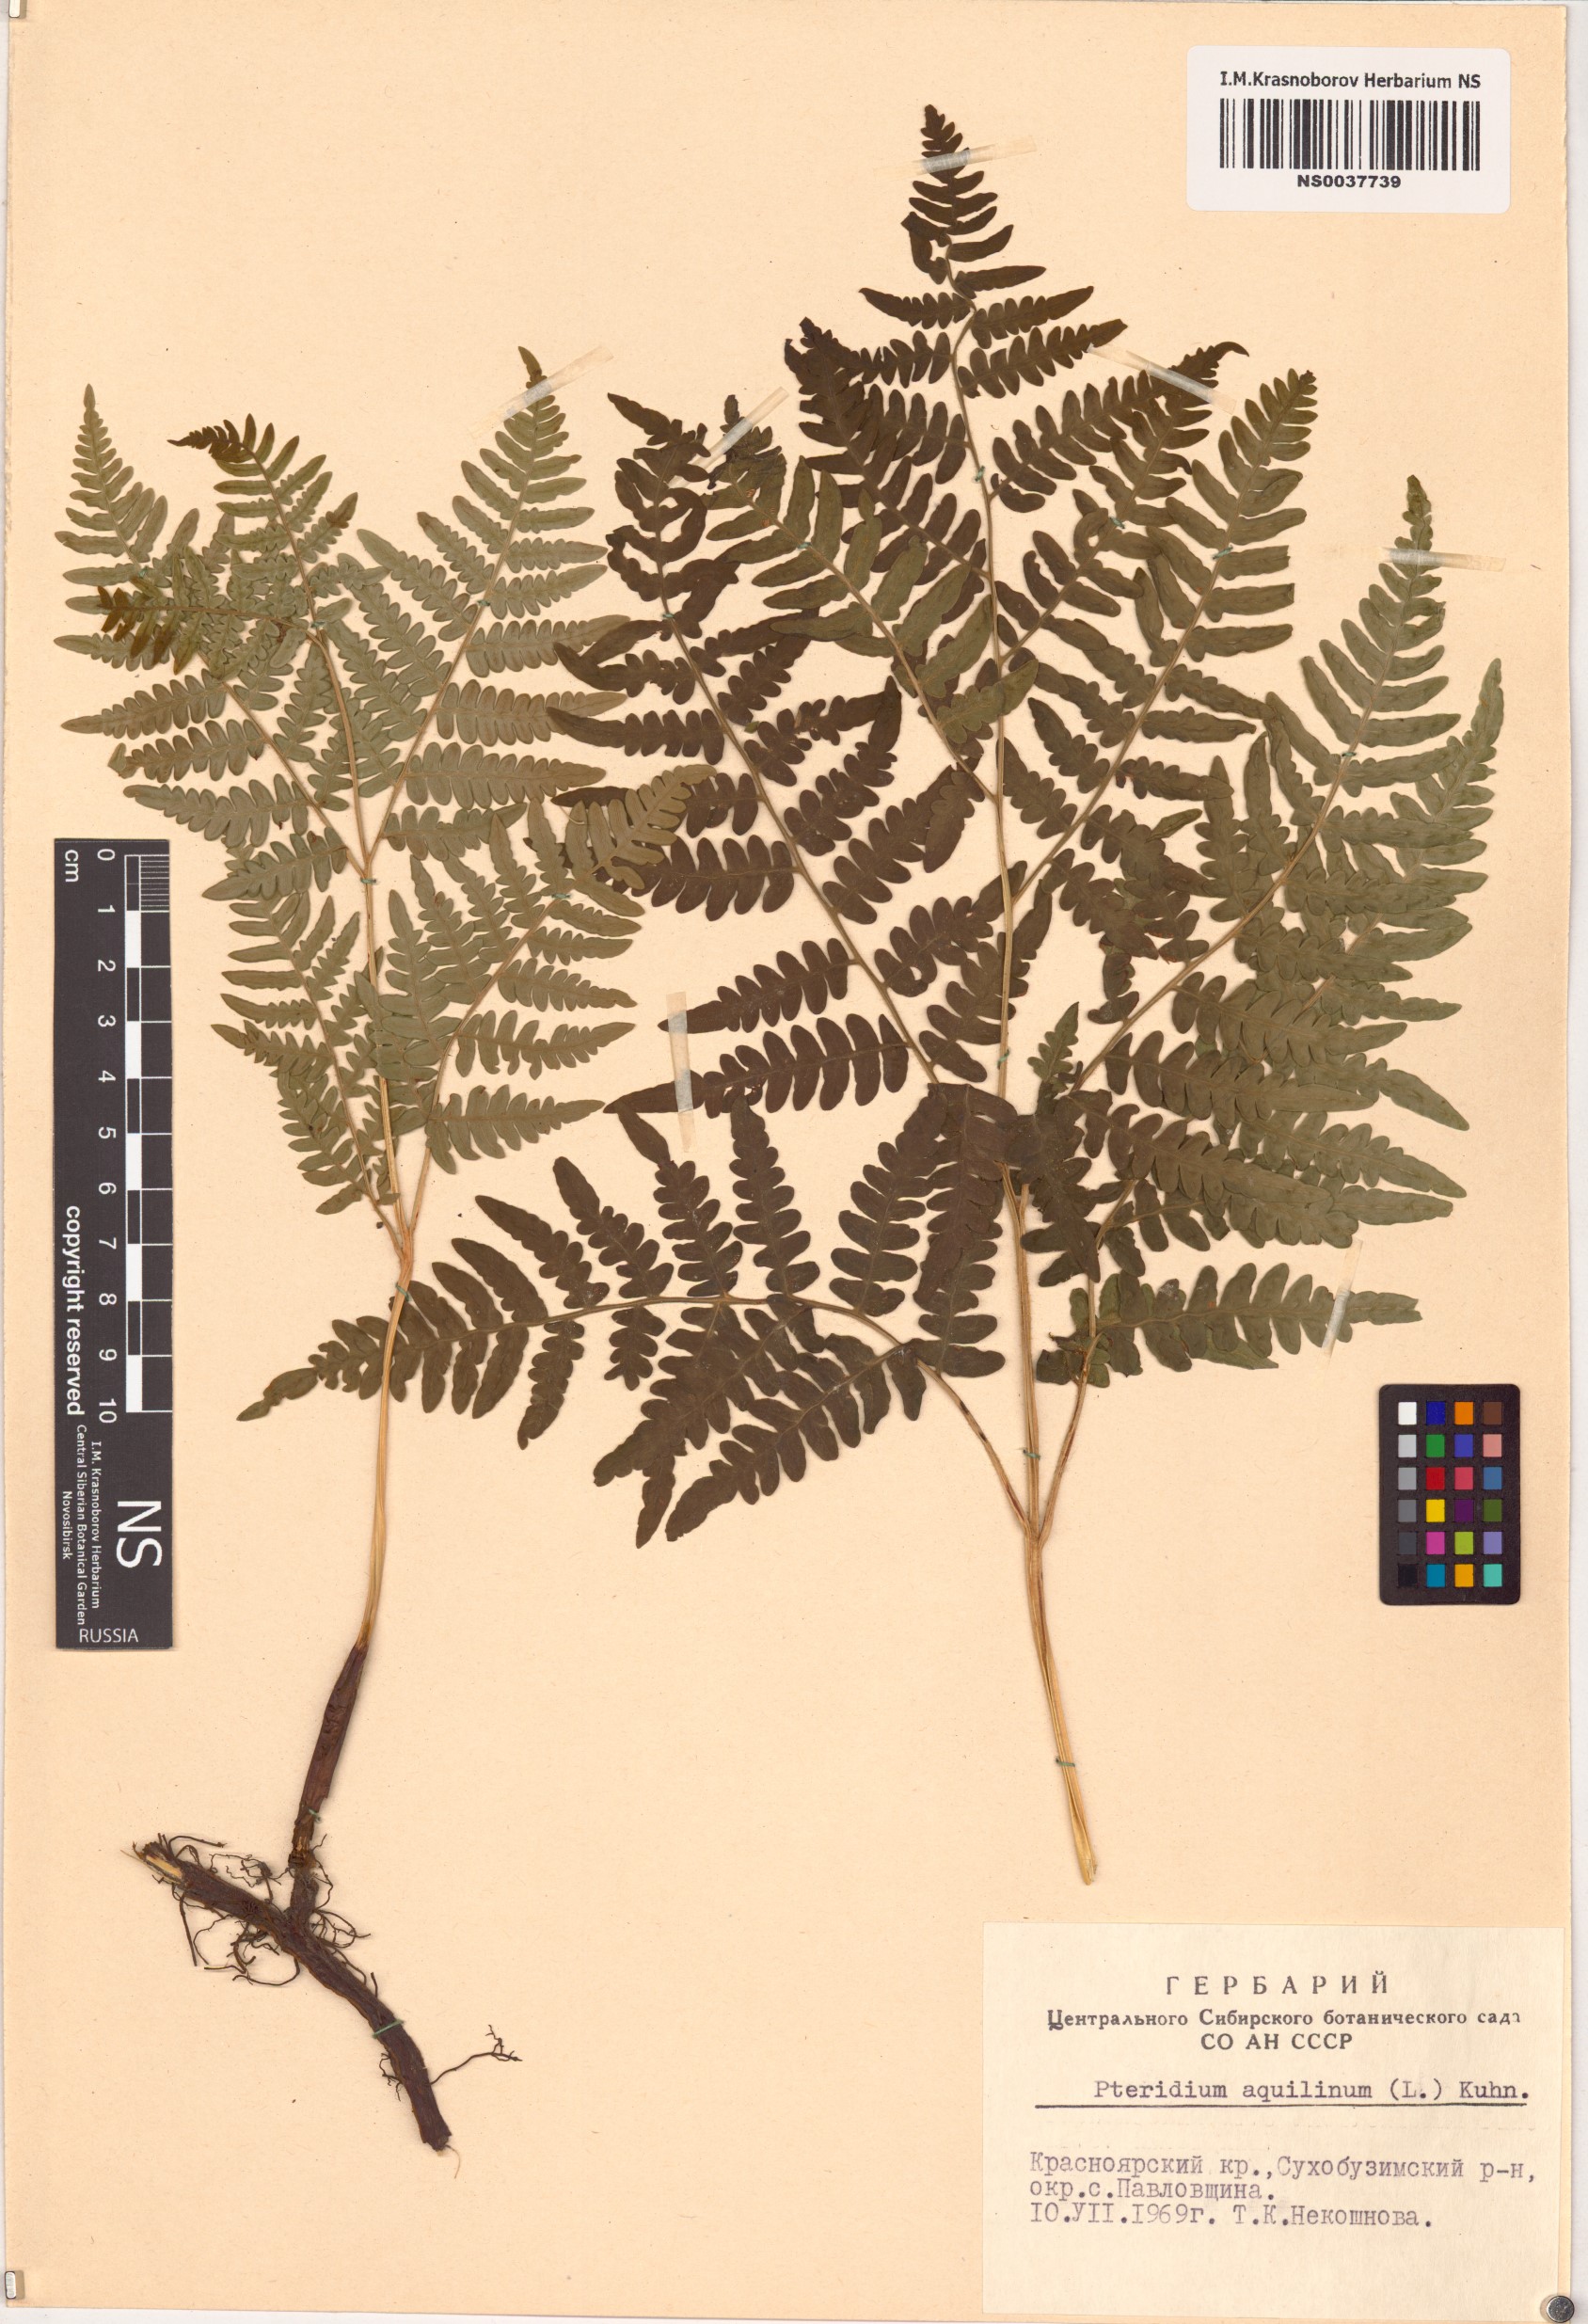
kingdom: Plantae
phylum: Tracheophyta
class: Polypodiopsida
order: Polypodiales
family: Dennstaedtiaceae
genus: Pteridium
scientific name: Pteridium aquilinum
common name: Bracken
